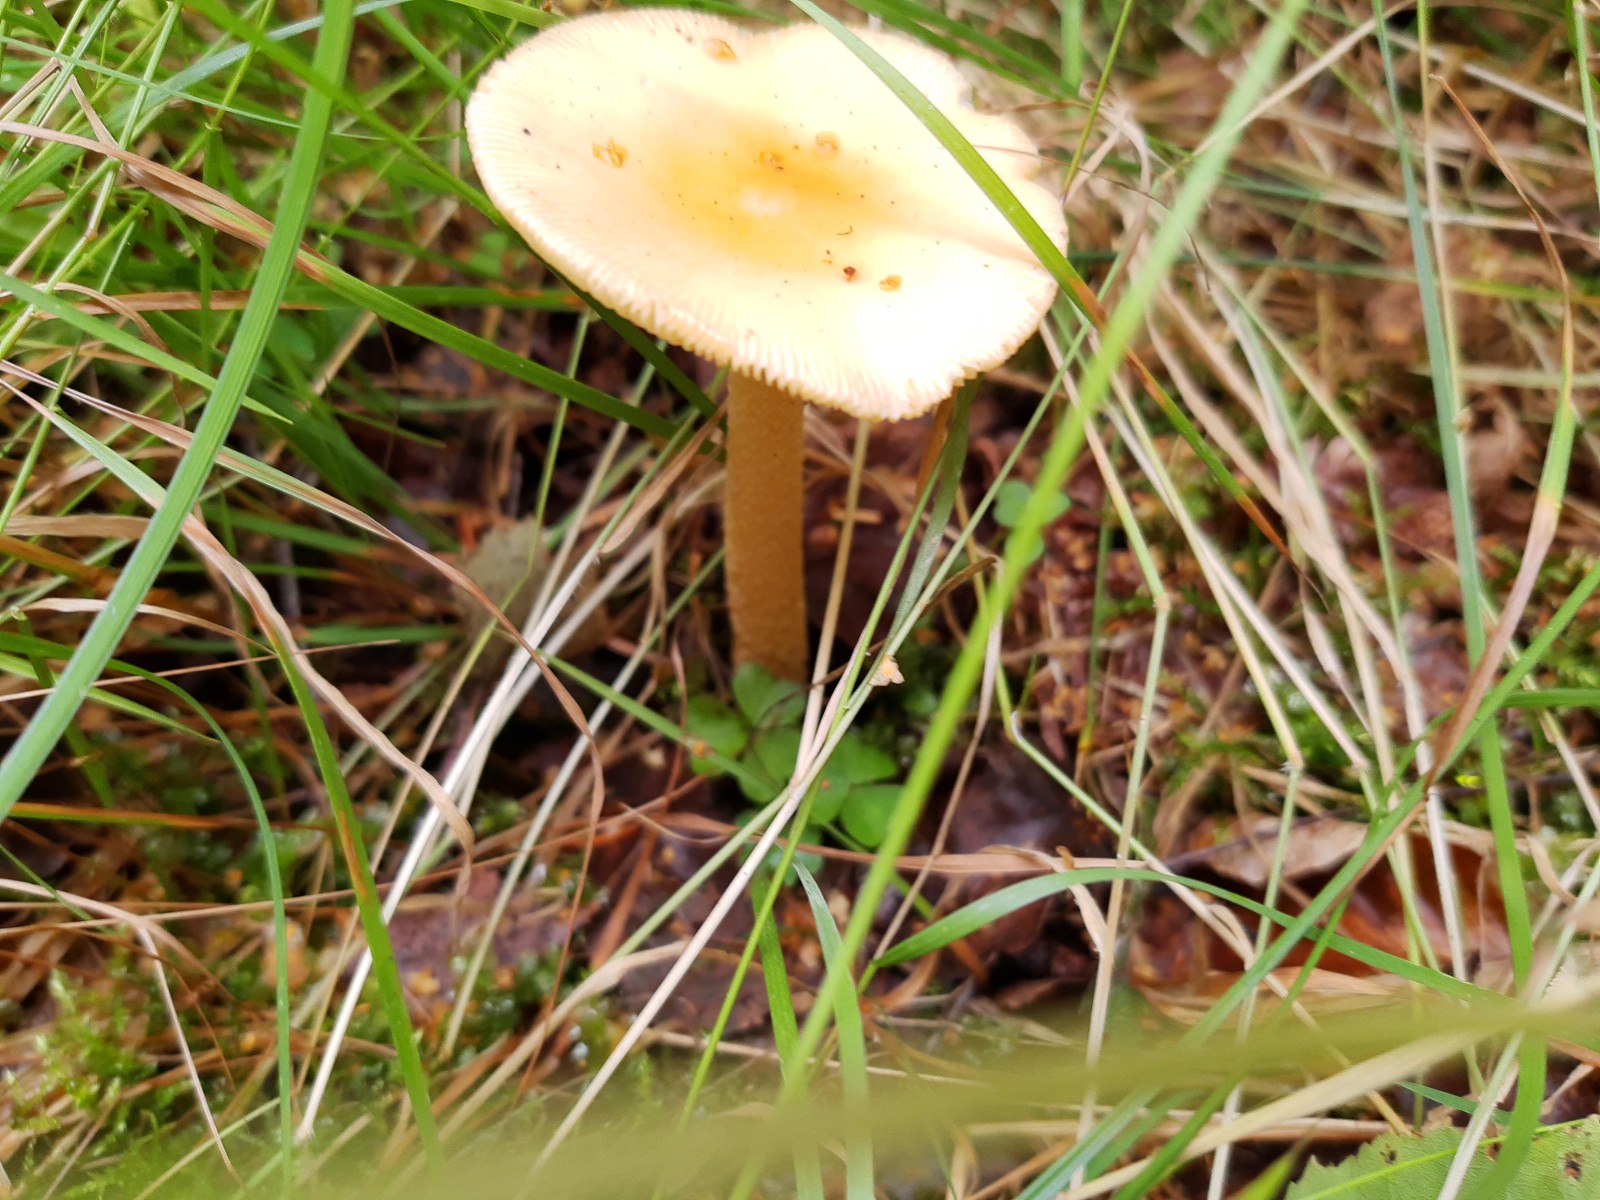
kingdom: Fungi
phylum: Basidiomycota
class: Agaricomycetes
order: Agaricales
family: Amanitaceae
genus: Amanita
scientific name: Amanita crocea
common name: gylden kam-fluesvamp
